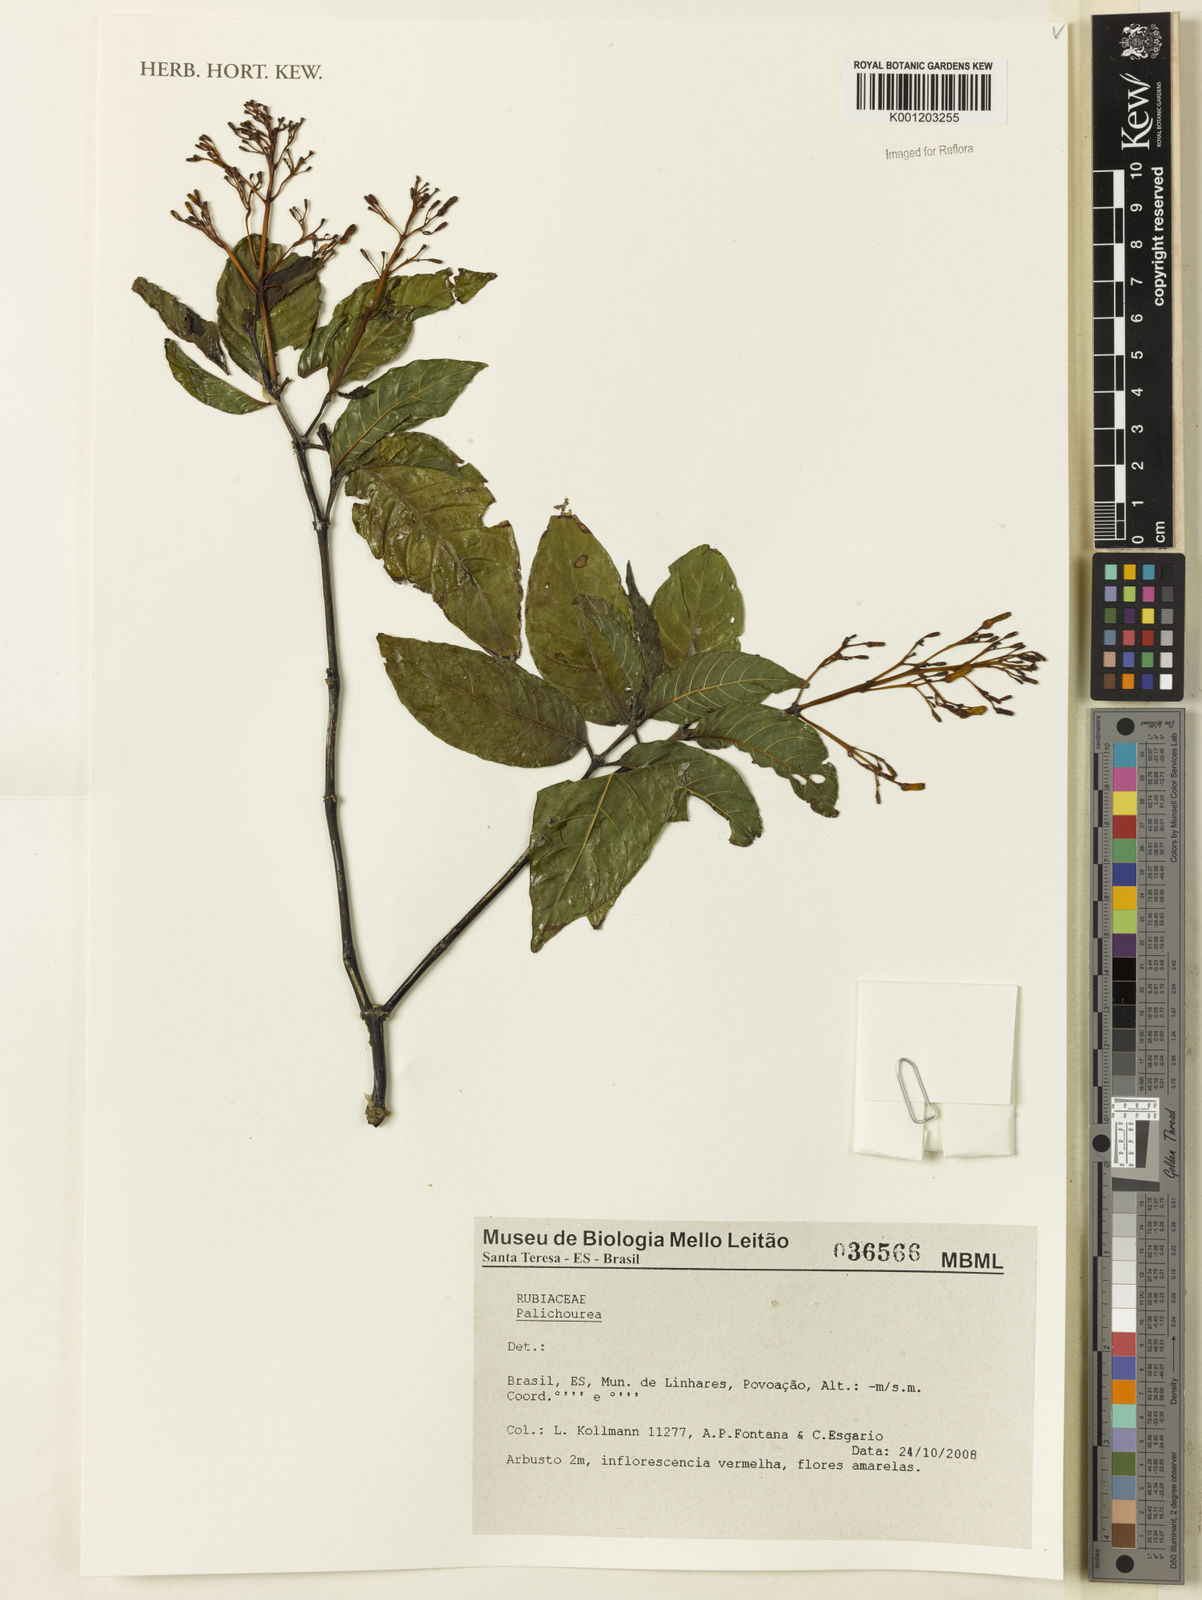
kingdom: Plantae
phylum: Tracheophyta
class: Magnoliopsida
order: Gentianales
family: Rubiaceae
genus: Palicourea
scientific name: Palicourea
